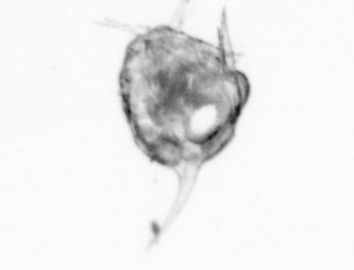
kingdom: Animalia
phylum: Arthropoda
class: Copepoda
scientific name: Copepoda
